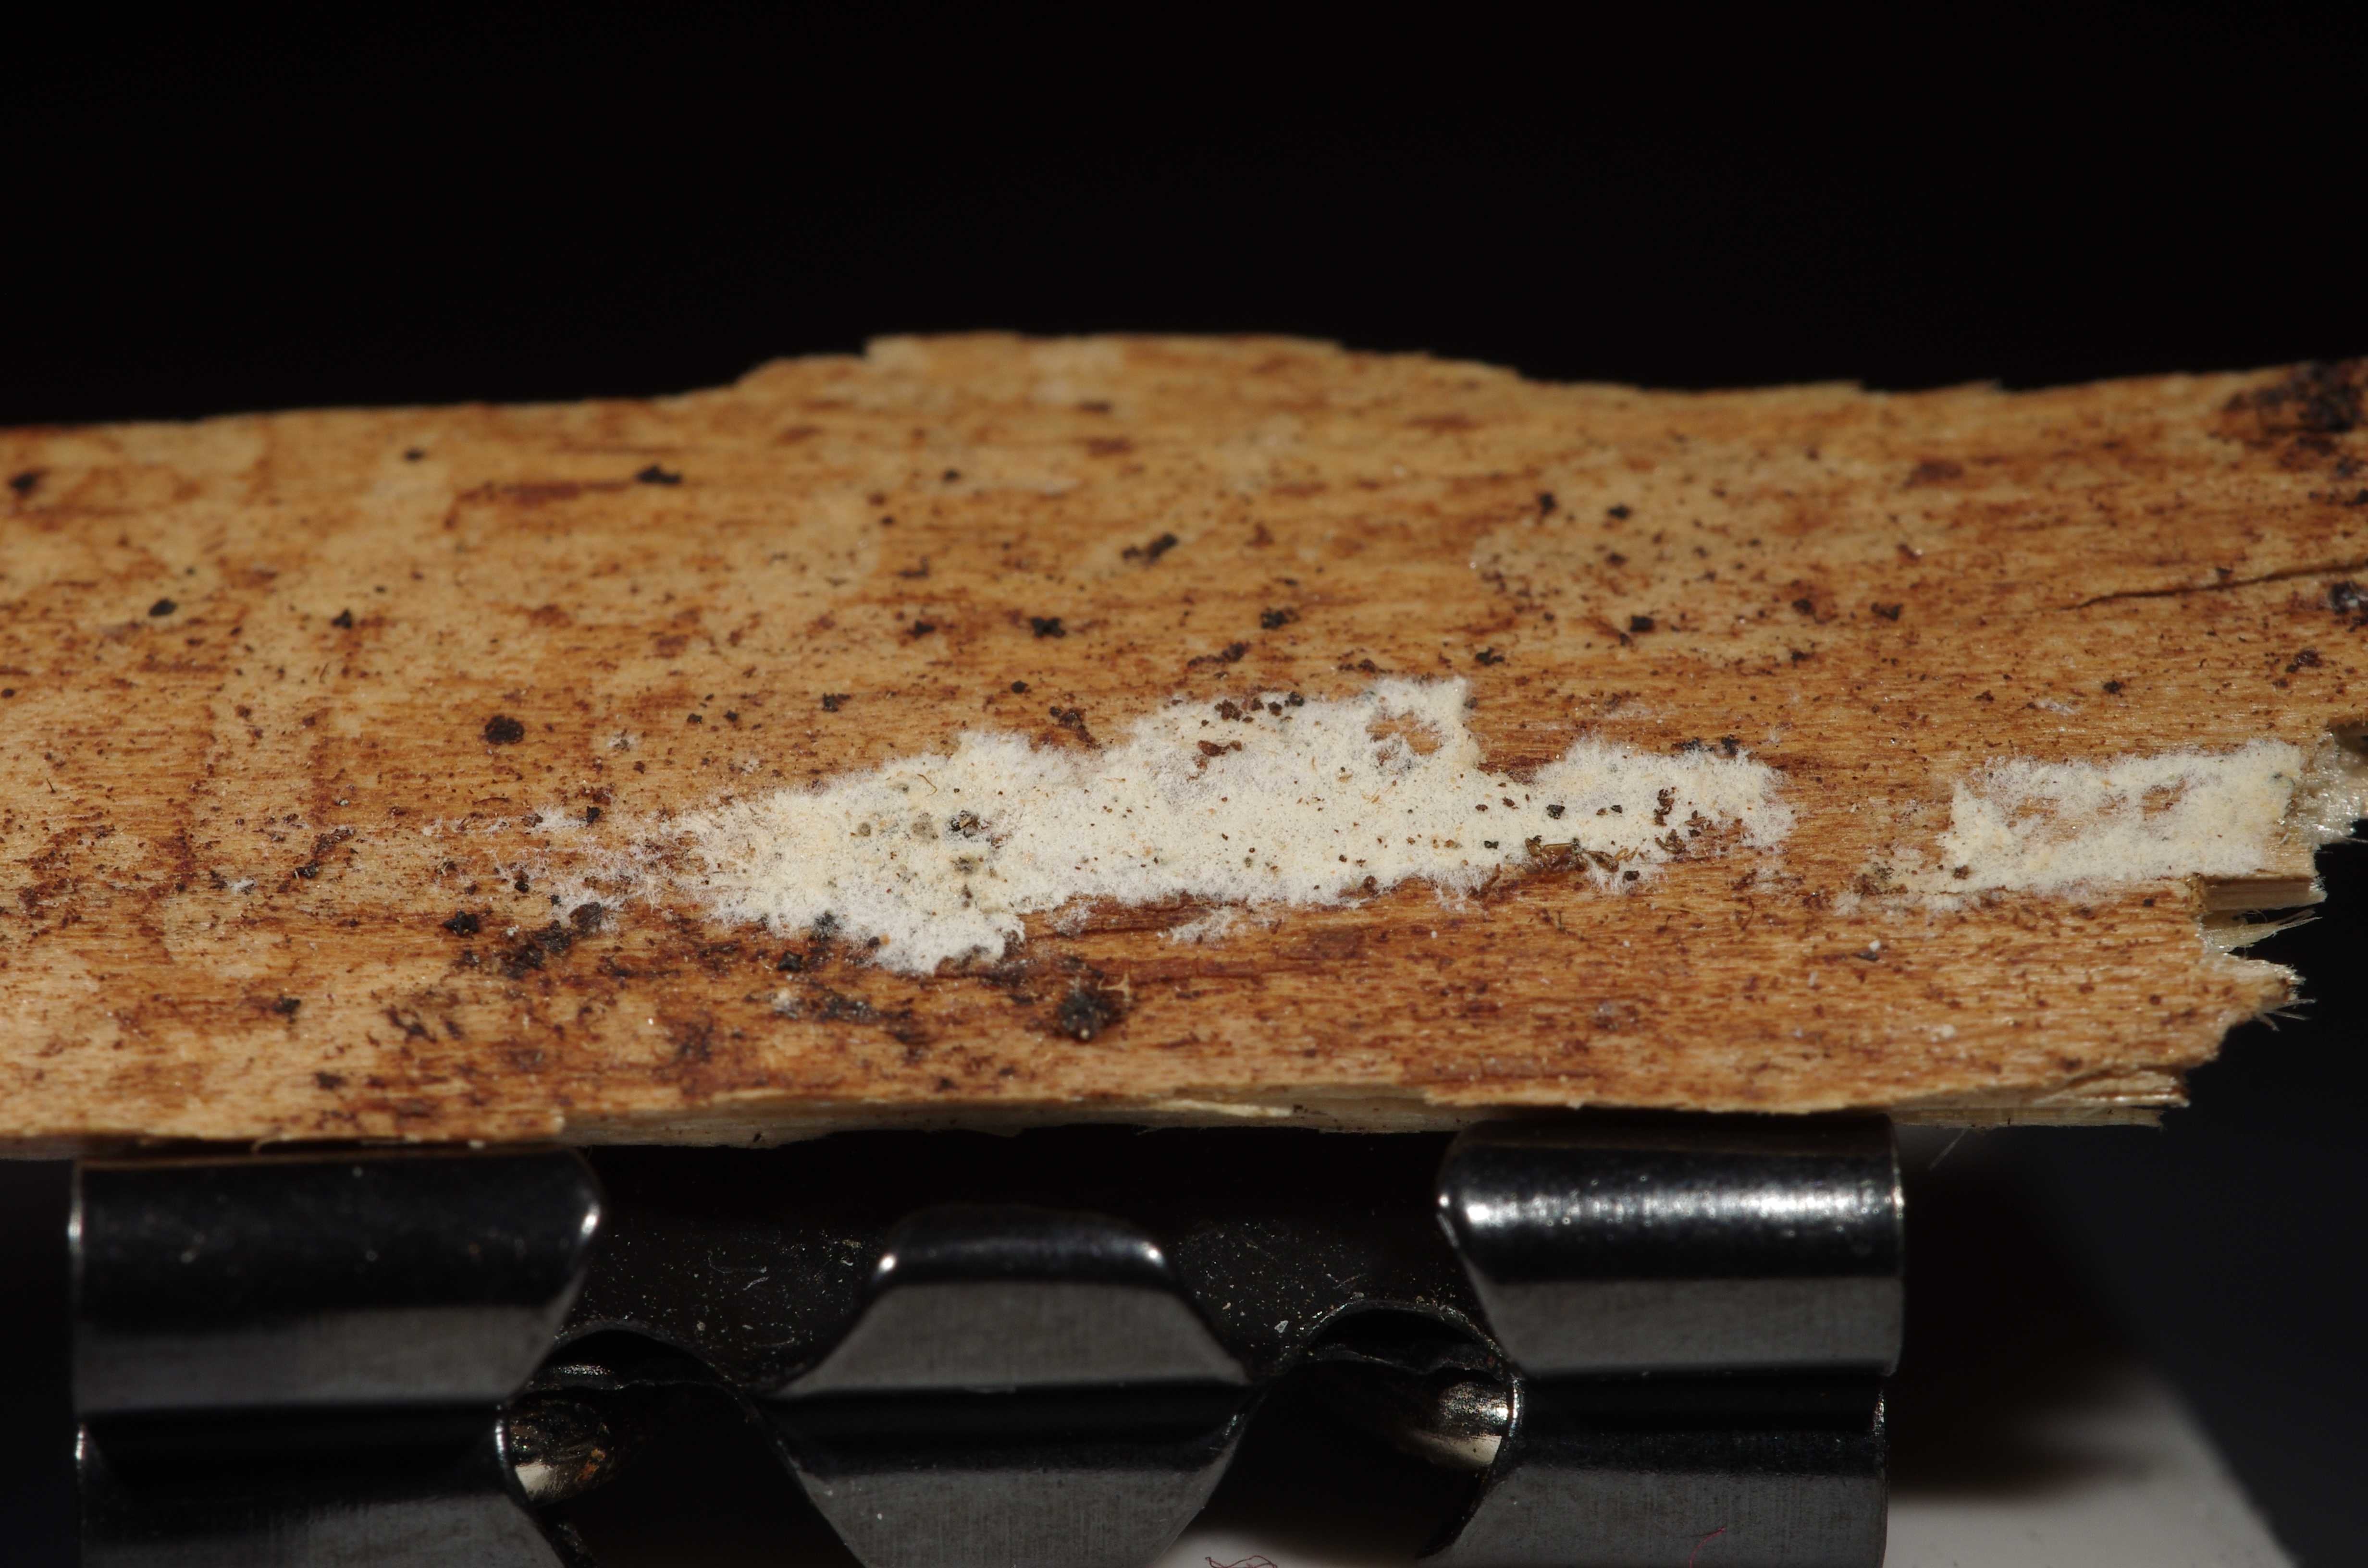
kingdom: Fungi
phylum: Basidiomycota
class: Agaricomycetes
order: Agaricales
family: Physalacriaceae
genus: Cylindrobasidium
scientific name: Cylindrobasidium evolvens
